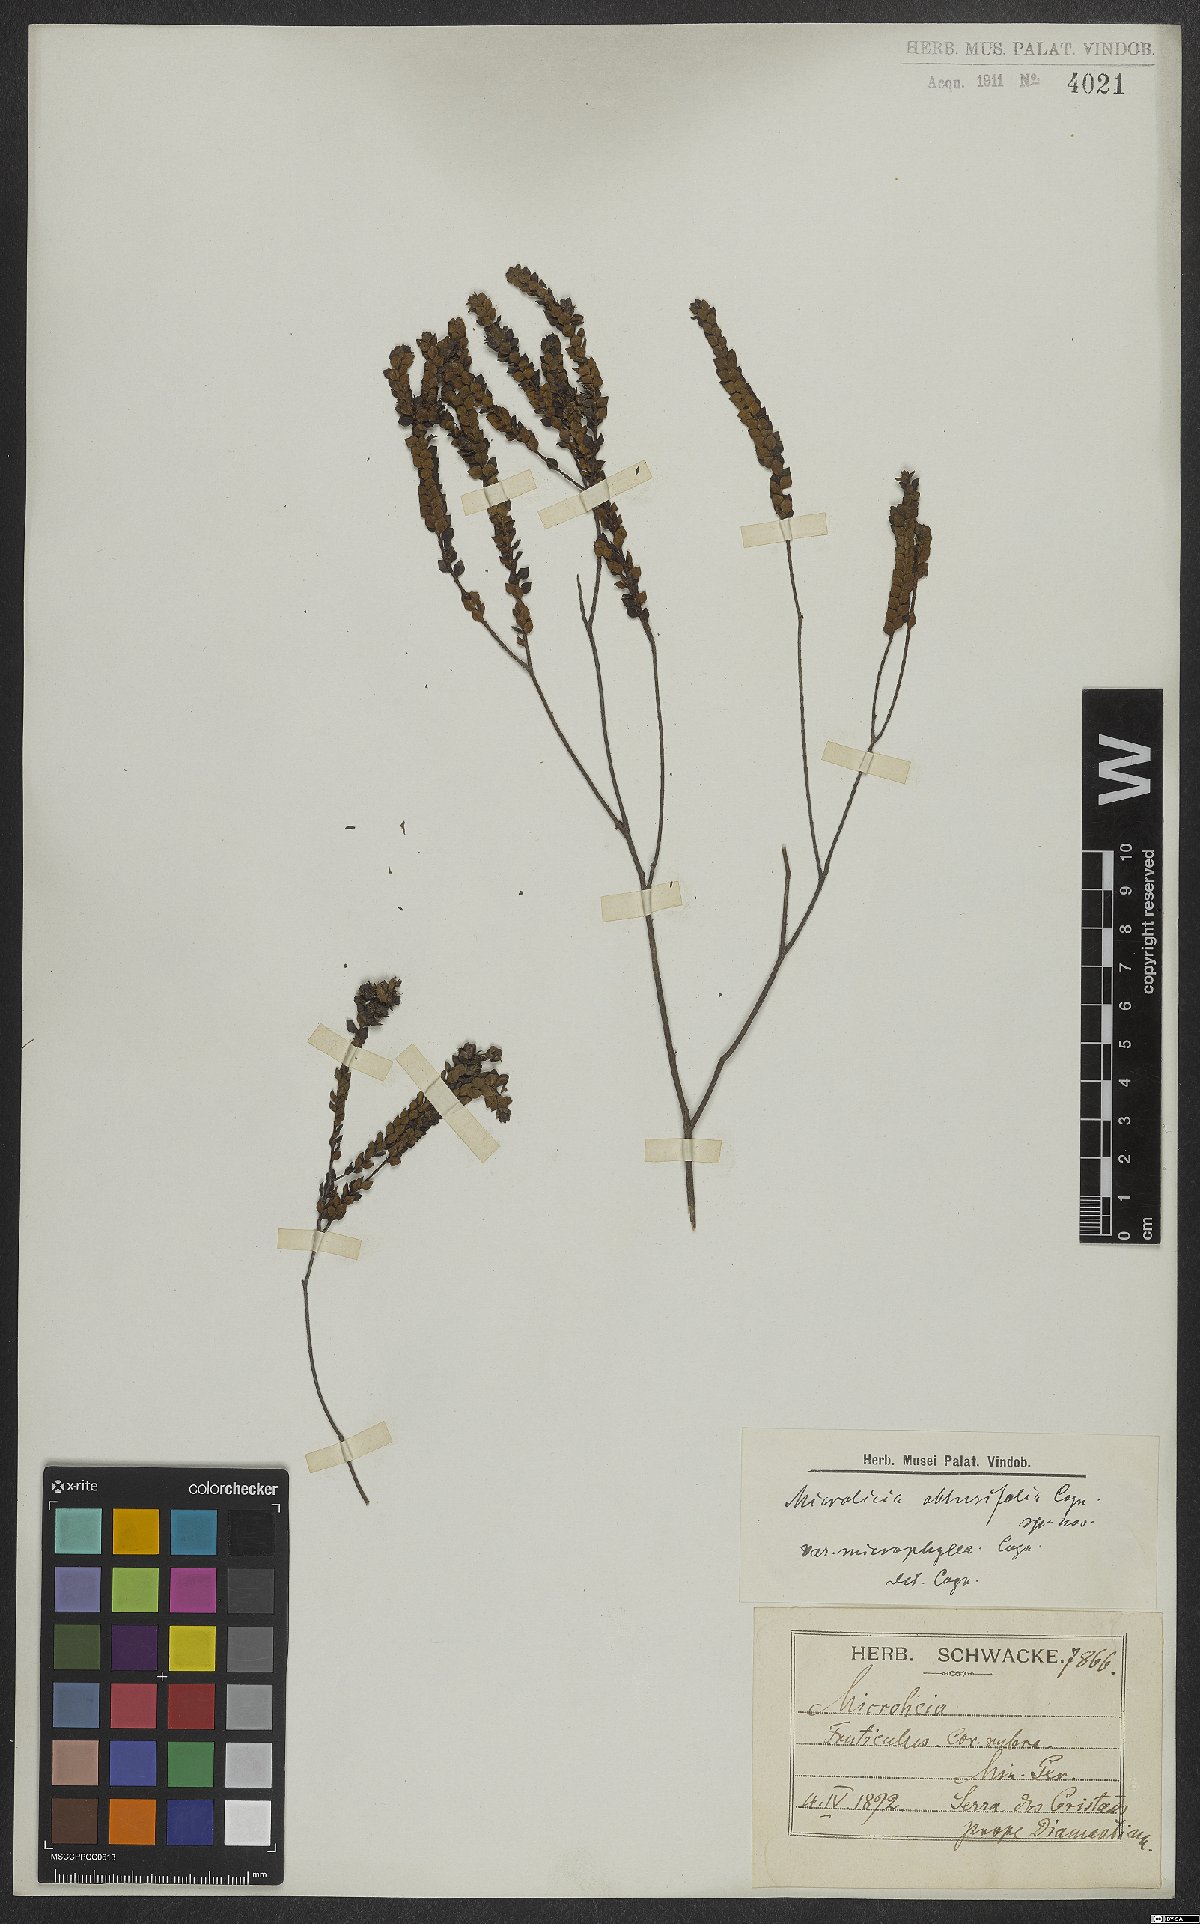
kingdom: Plantae
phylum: Tracheophyta
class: Magnoliopsida
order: Myrtales
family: Melastomataceae
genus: Microlicia
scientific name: Microlicia obtusifolia
